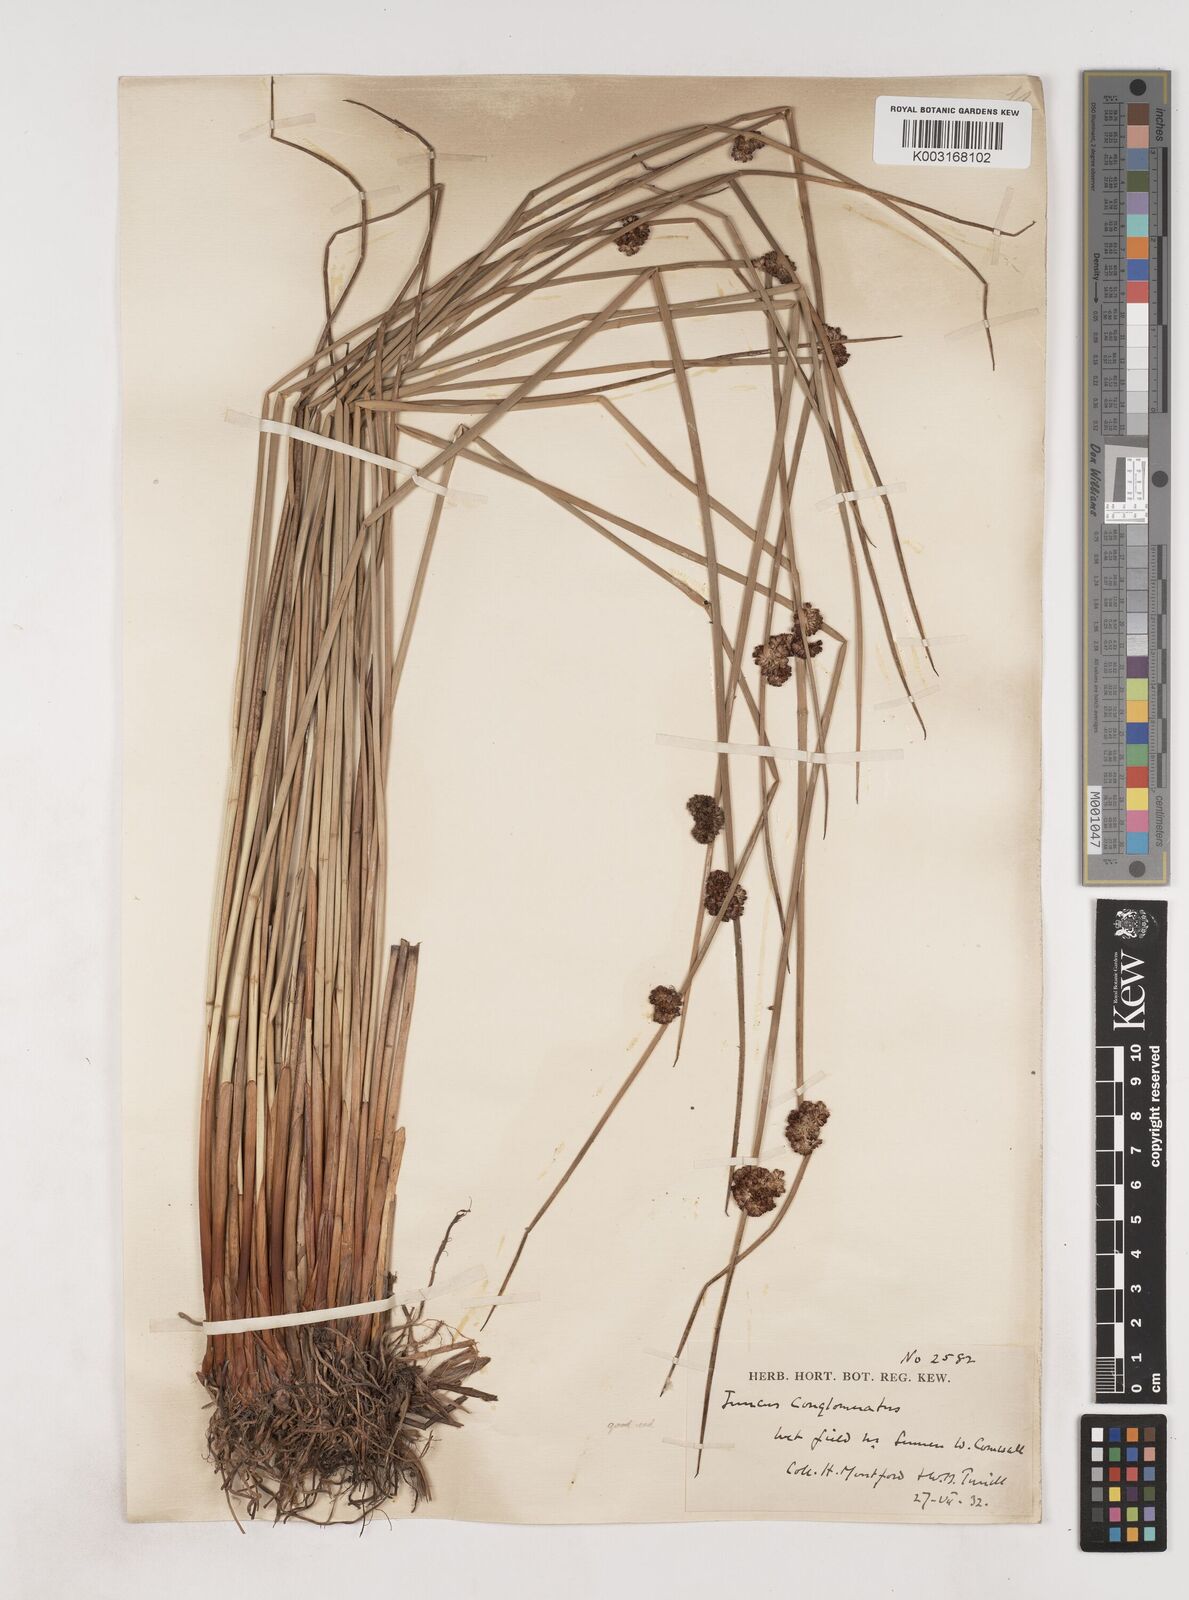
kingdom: Plantae
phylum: Tracheophyta
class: Liliopsida
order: Poales
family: Juncaceae
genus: Juncus
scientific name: Juncus conglomeratus
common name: Compact rush
